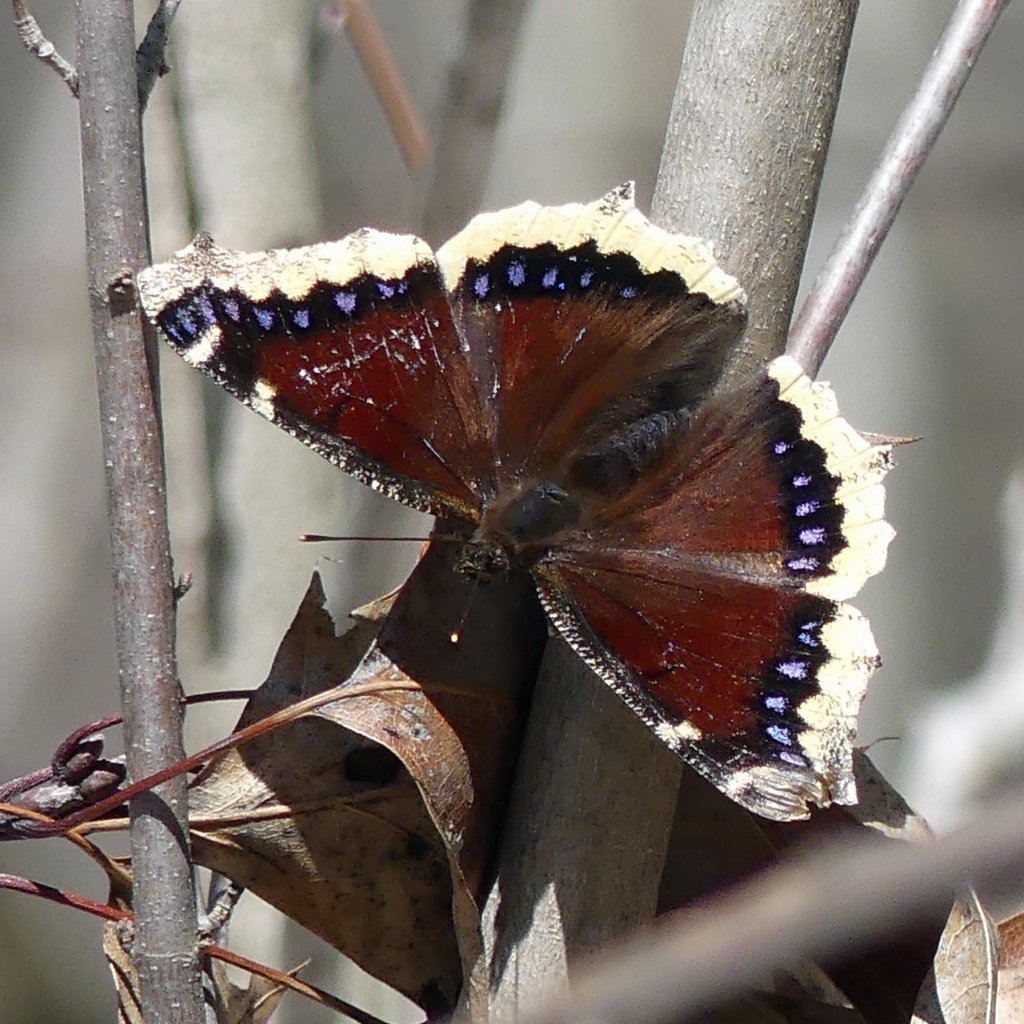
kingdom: Animalia
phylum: Arthropoda
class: Insecta
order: Lepidoptera
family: Nymphalidae
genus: Nymphalis
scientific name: Nymphalis antiopa
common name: Mourning Cloak
